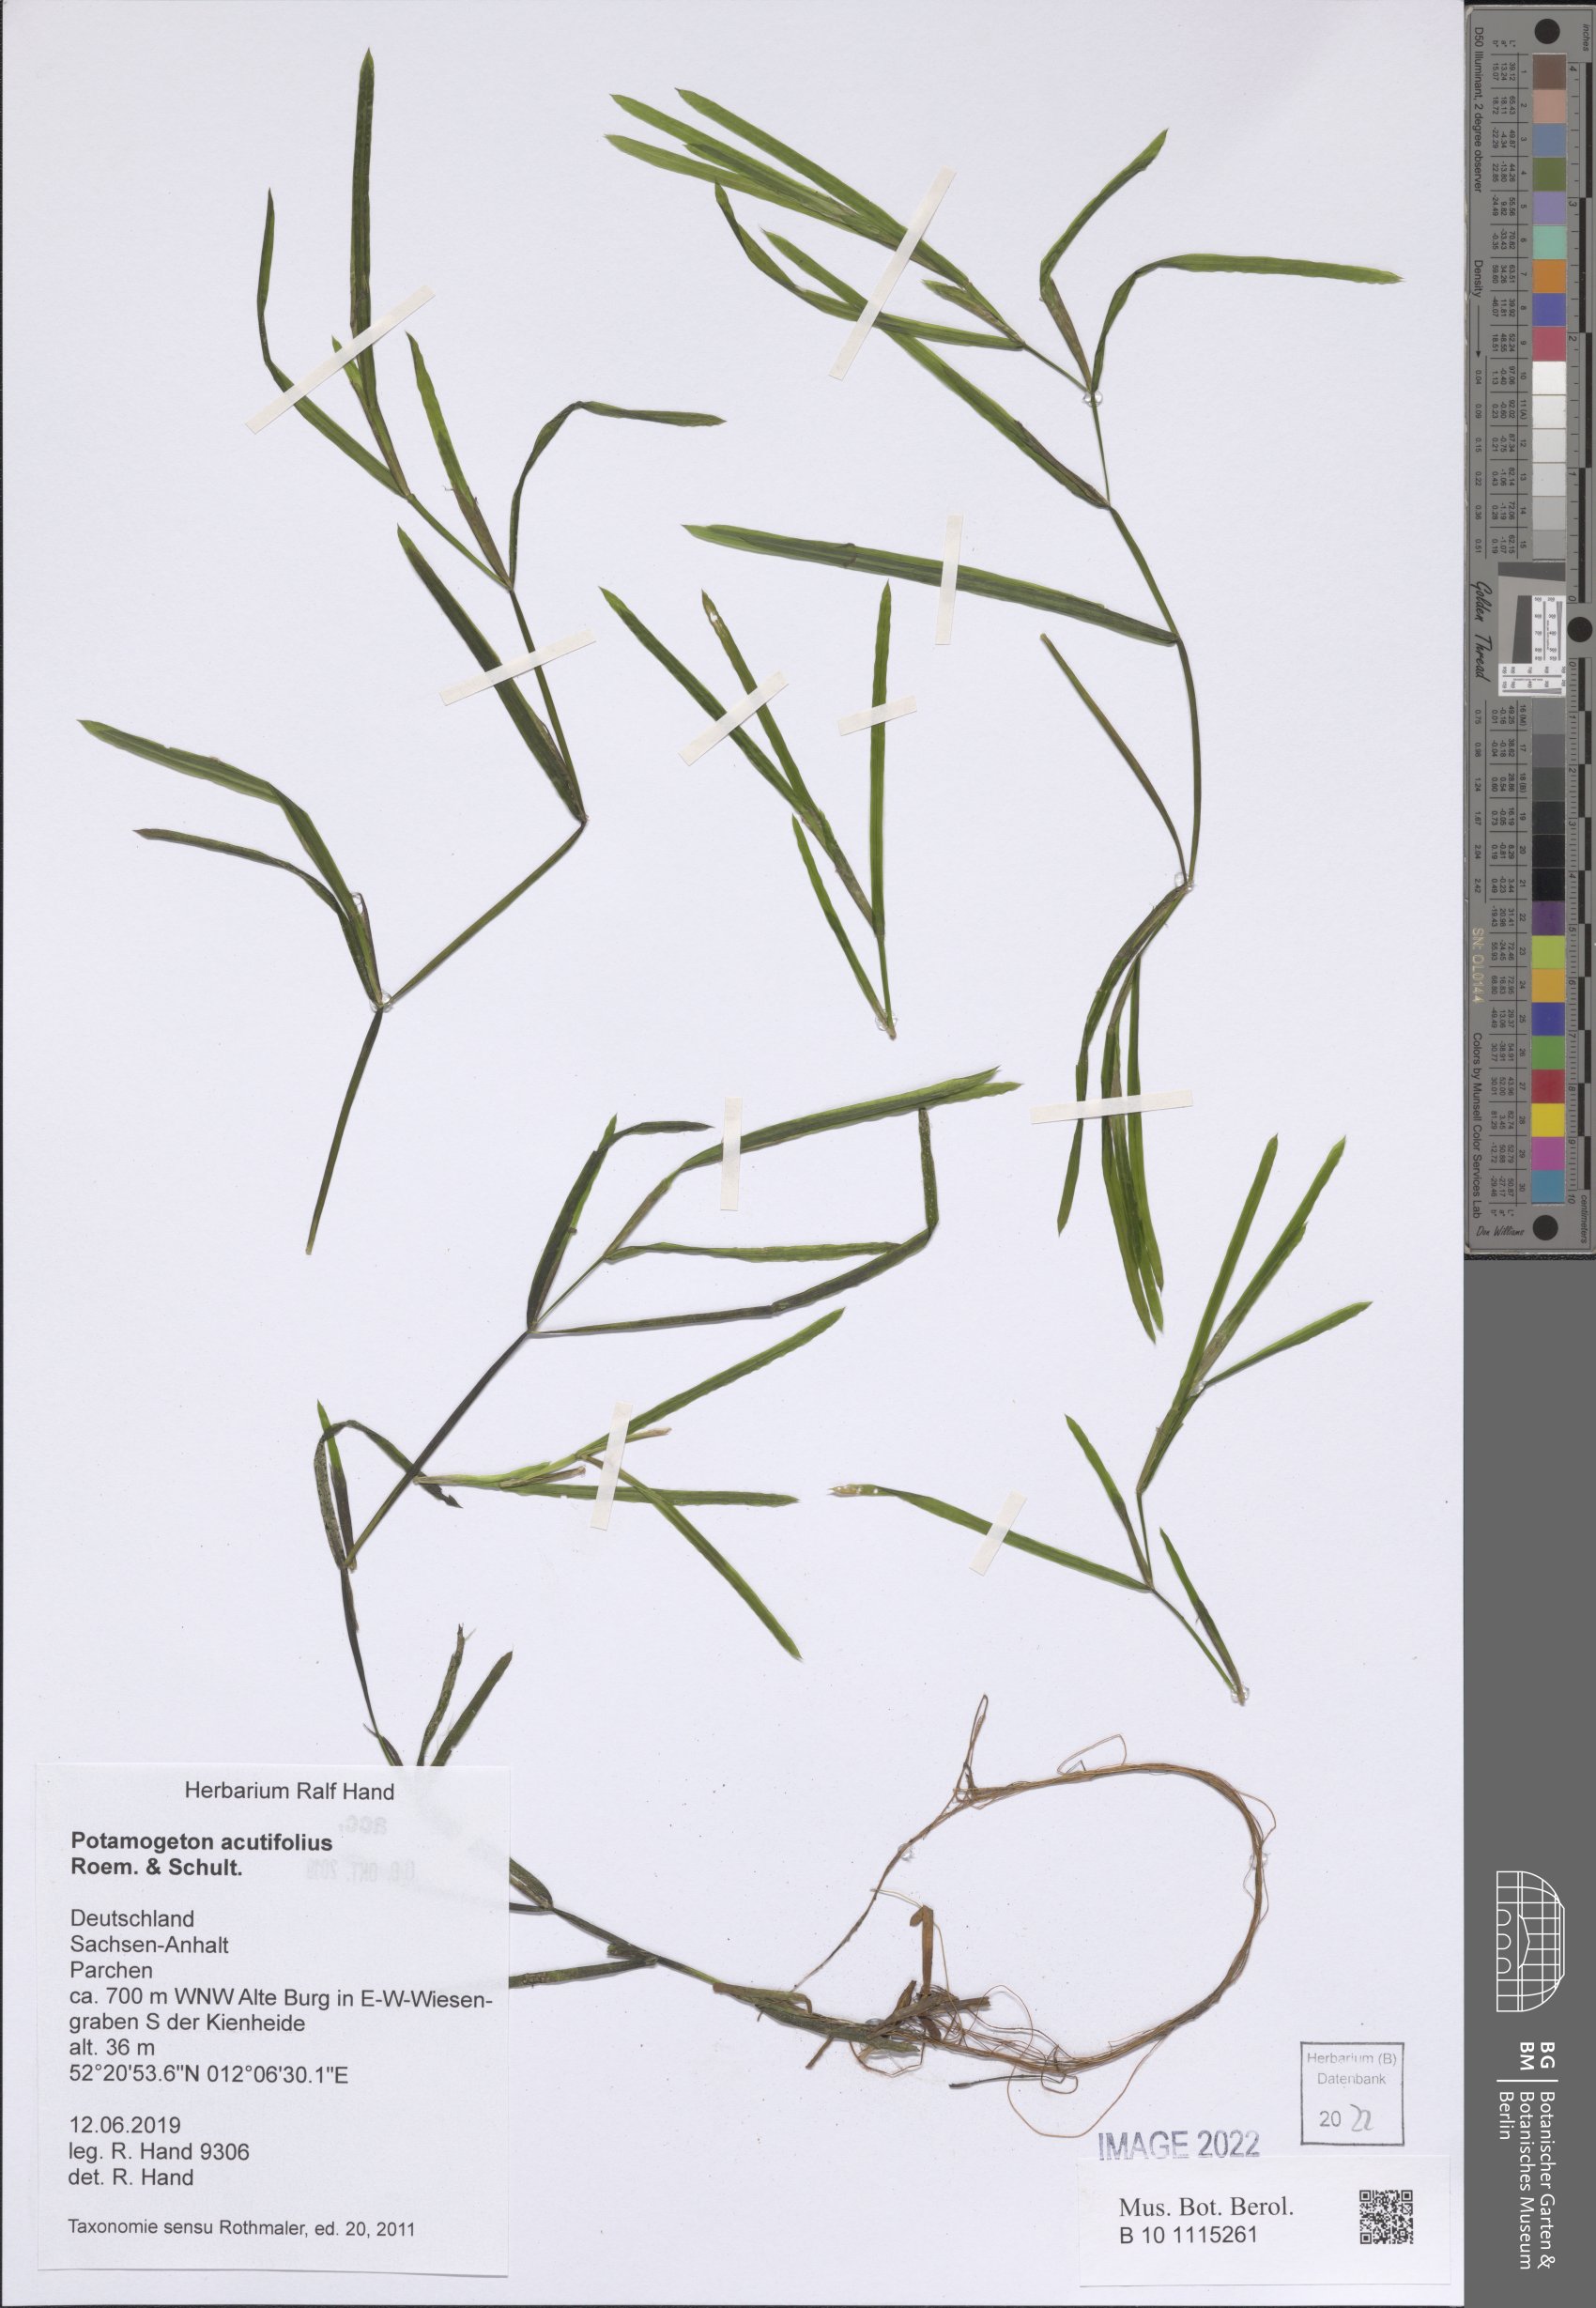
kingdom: Plantae
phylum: Tracheophyta
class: Liliopsida
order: Alismatales
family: Potamogetonaceae
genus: Potamogeton
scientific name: Potamogeton acutifolius
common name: Sharp-leaved pondweed
